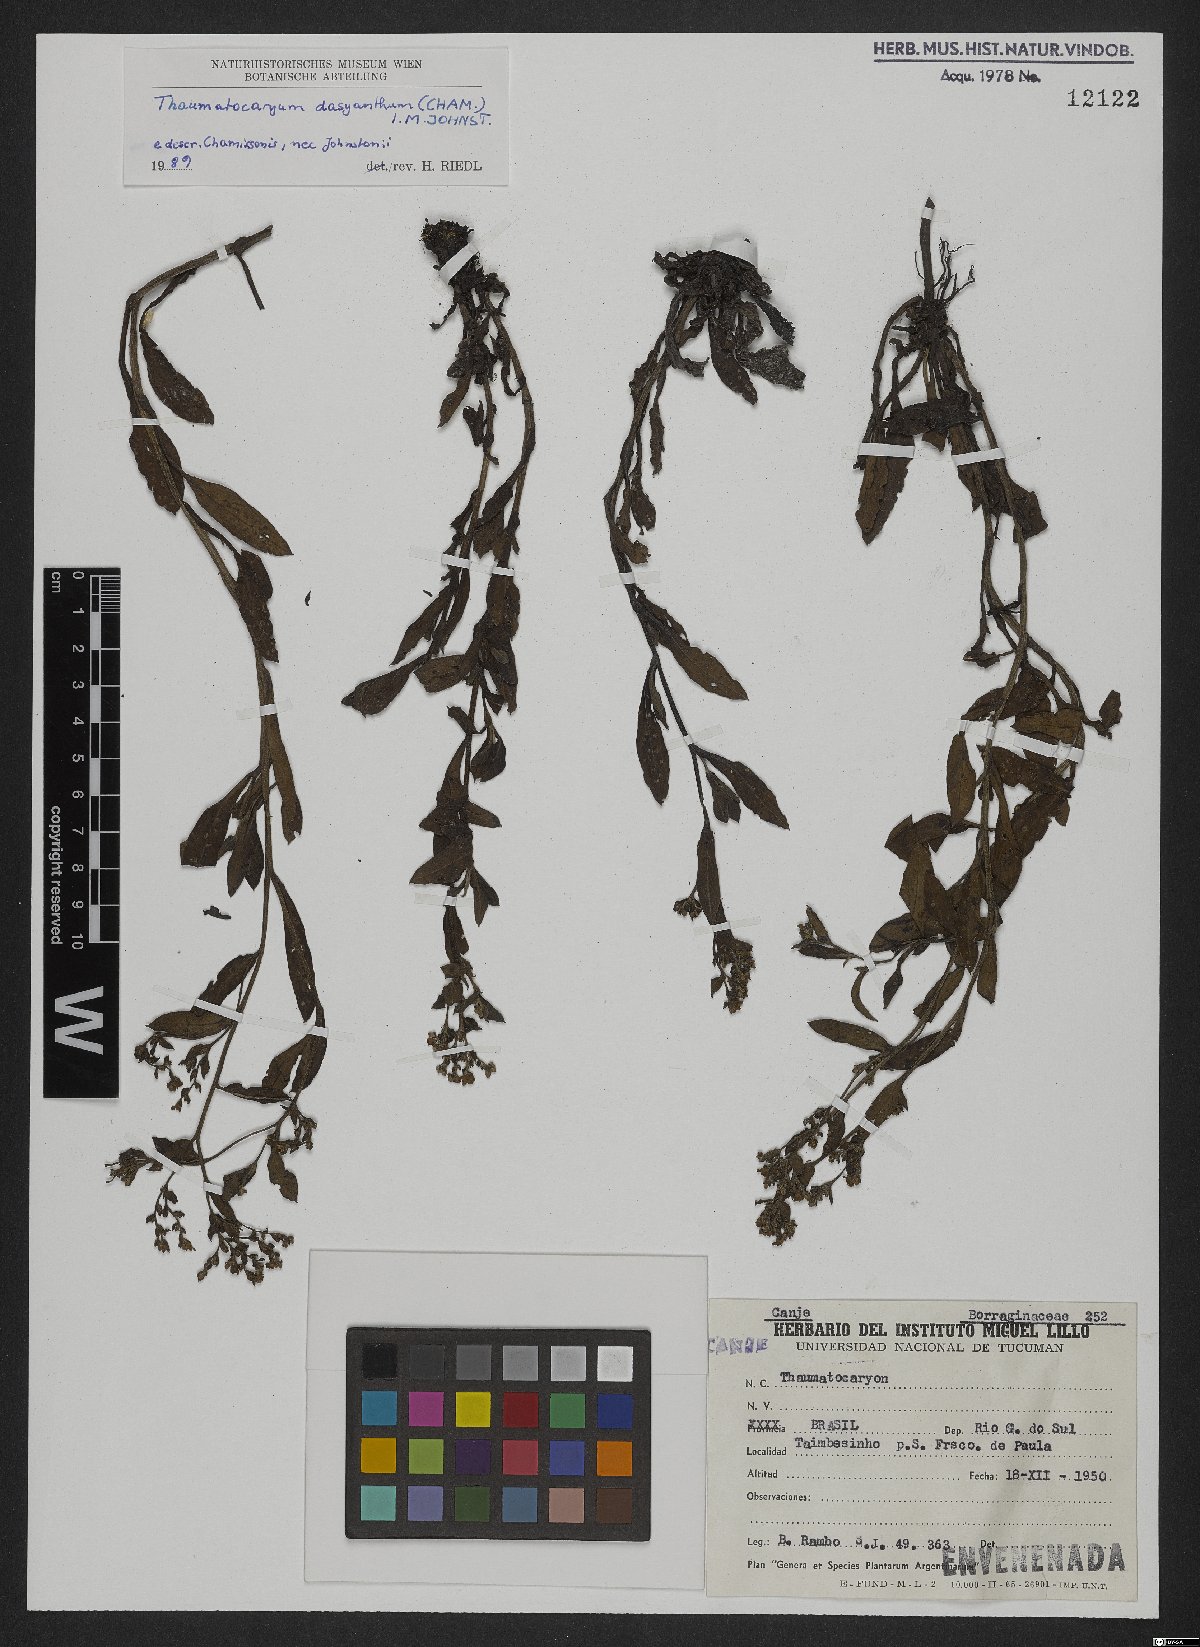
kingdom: Plantae
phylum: Tracheophyta
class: Magnoliopsida
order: Boraginales
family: Boraginaceae
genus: Thaumatocaryon
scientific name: Thaumatocaryon dasyanthum
